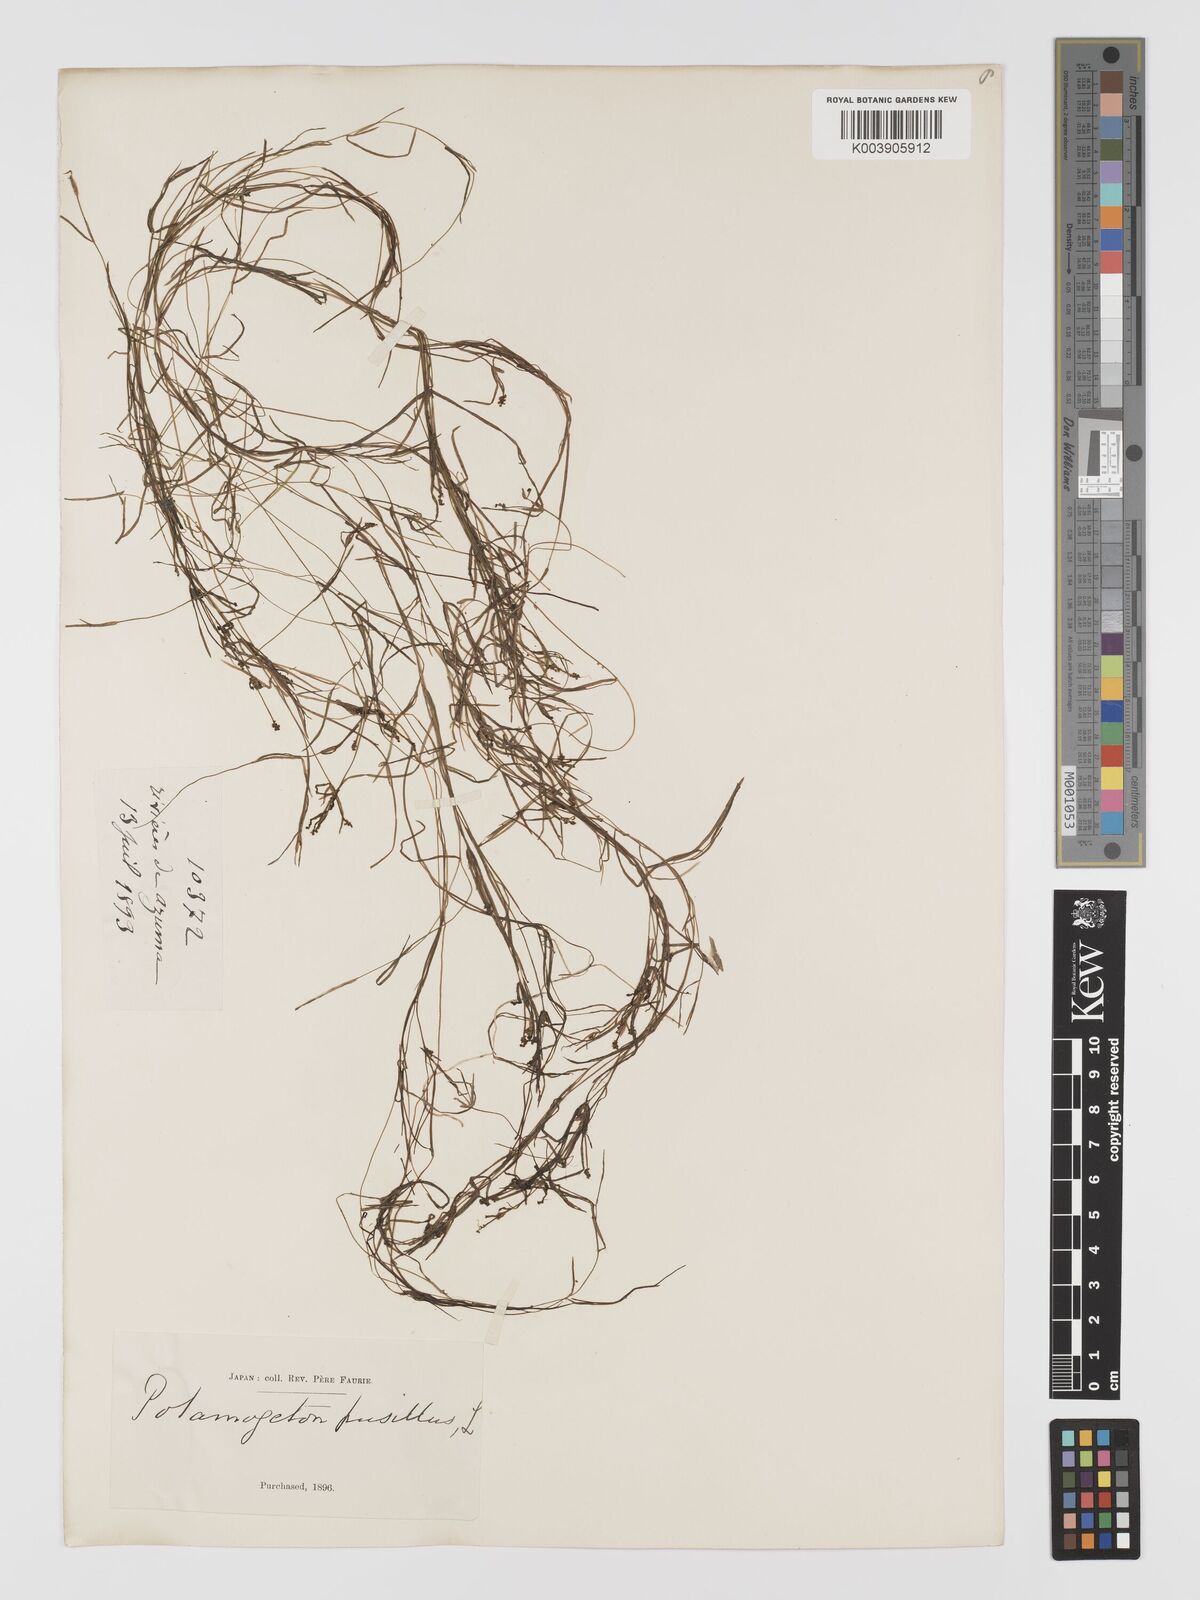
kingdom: Plantae
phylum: Tracheophyta
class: Liliopsida
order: Alismatales
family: Potamogetonaceae
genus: Potamogeton
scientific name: Potamogeton pusillus
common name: Lesser pondweed
